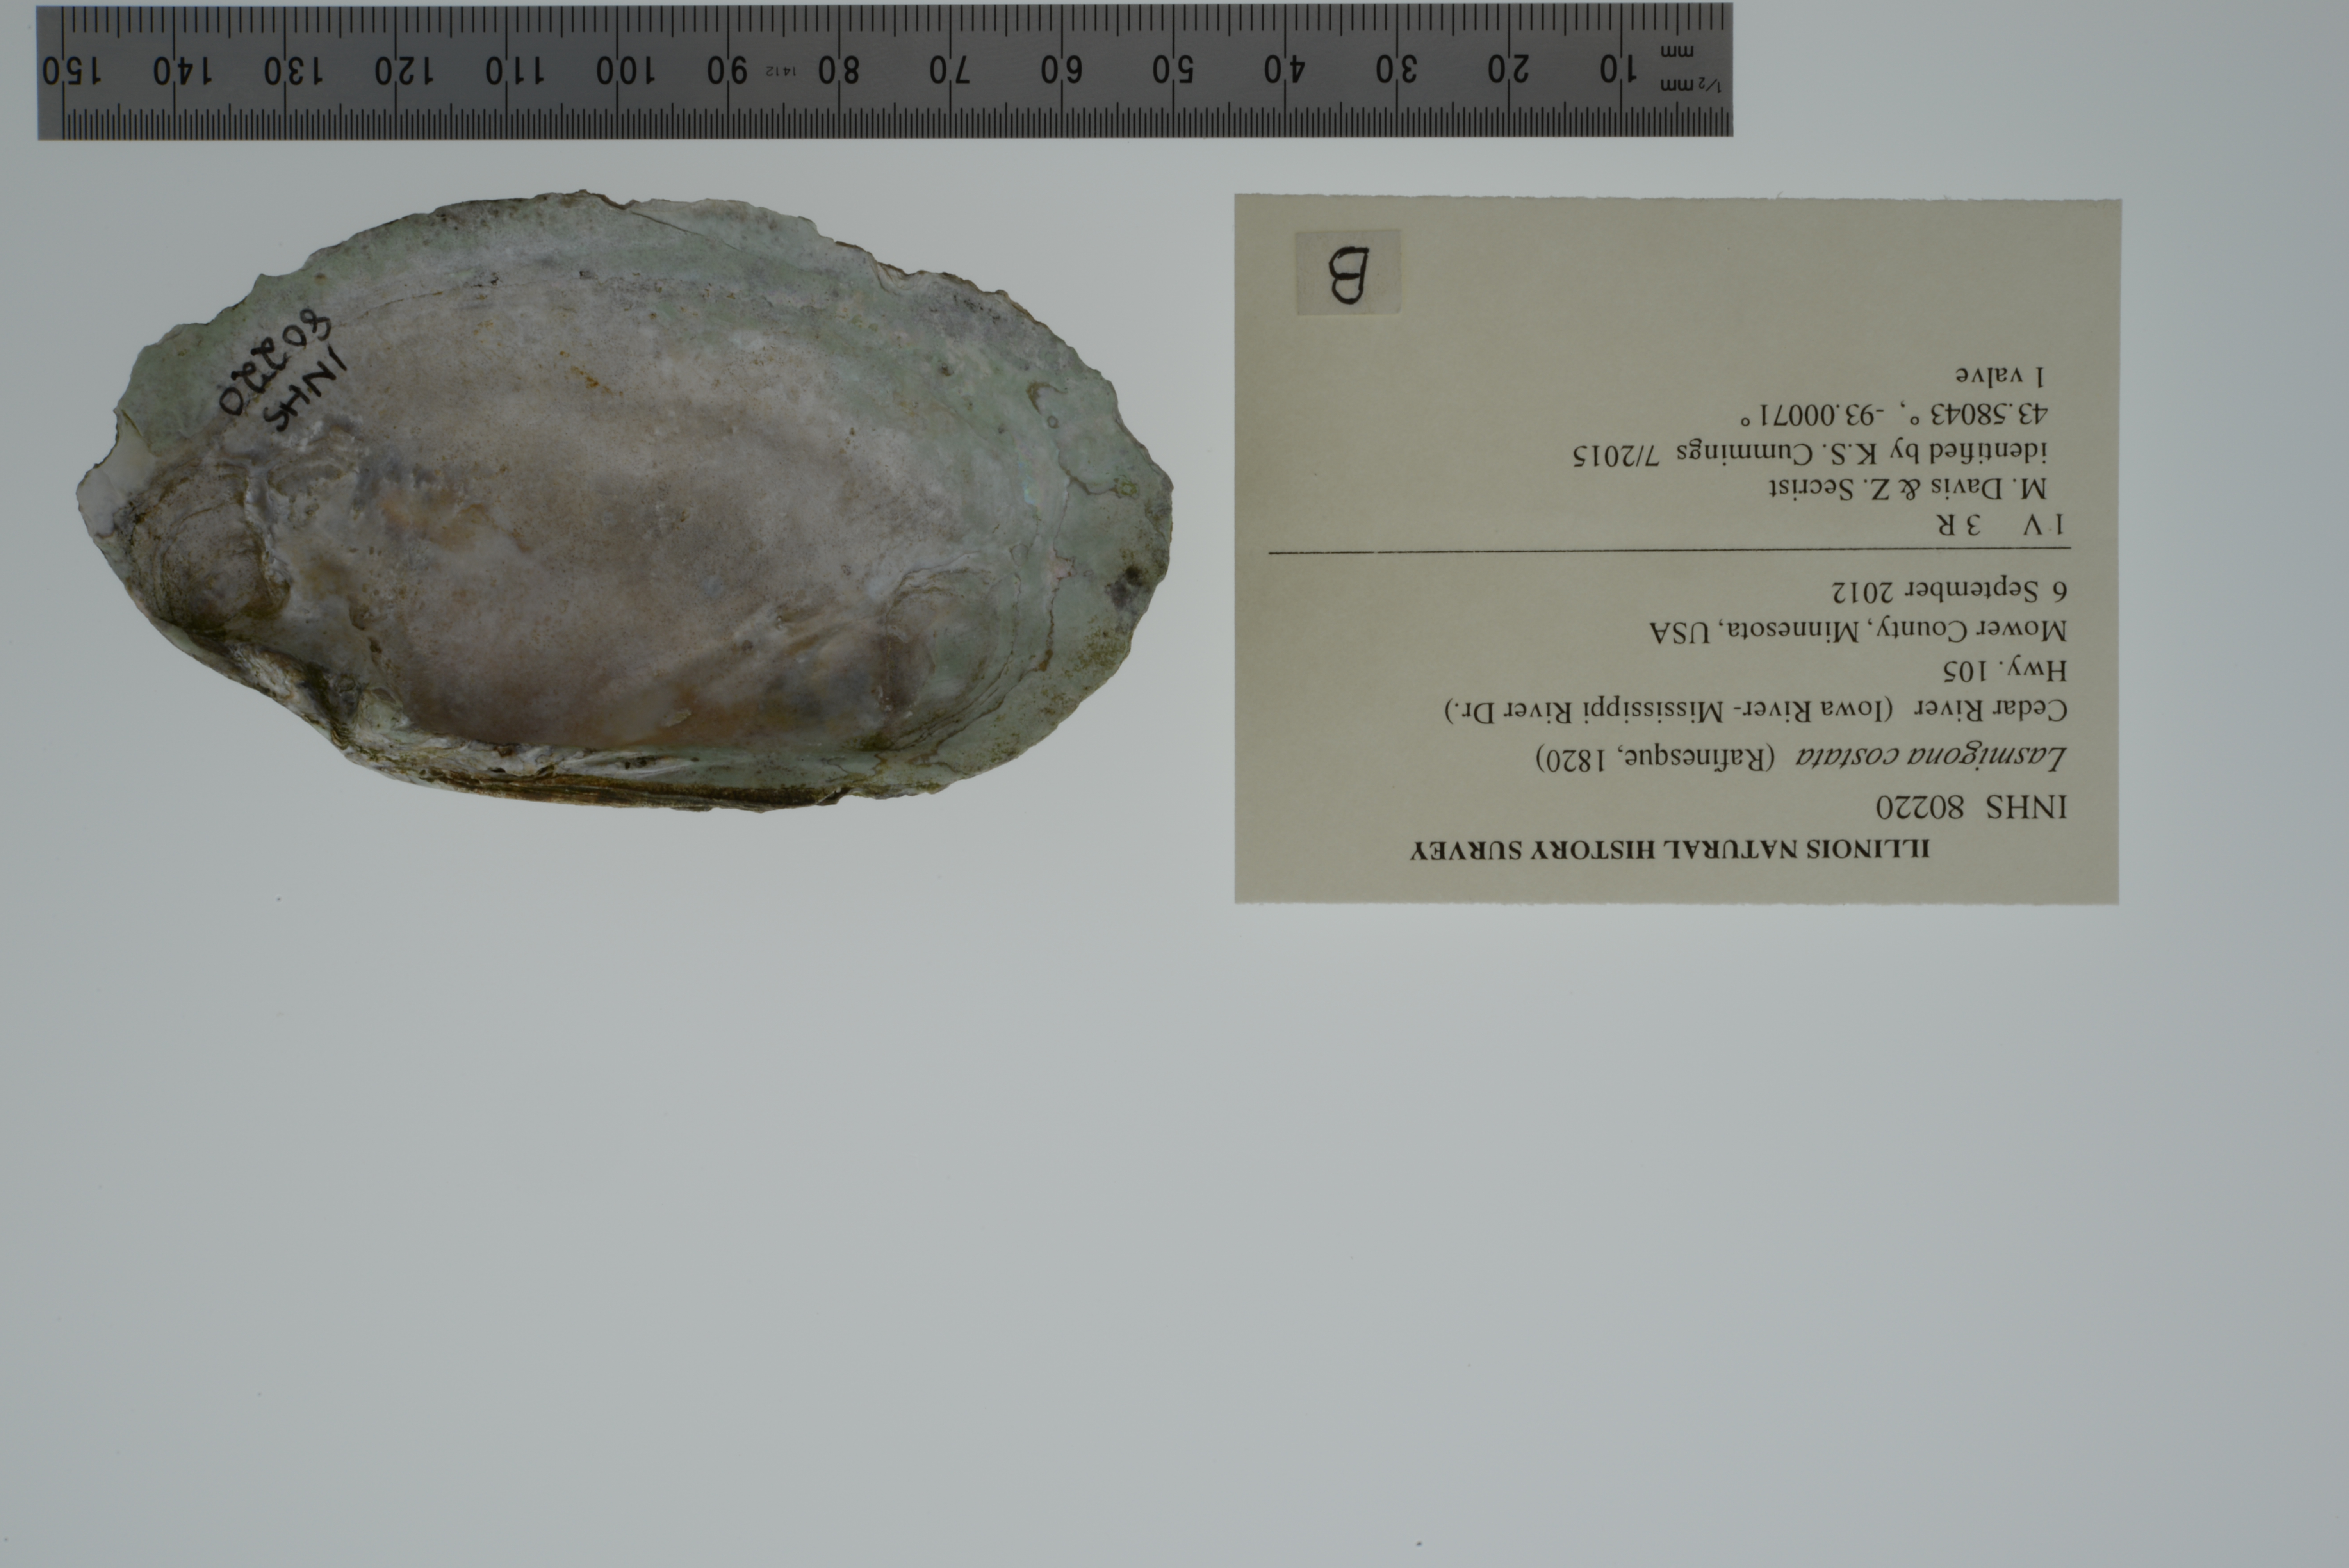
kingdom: Animalia
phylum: Mollusca
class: Bivalvia
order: Unionida
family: Unionidae
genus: Lasmigona
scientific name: Lasmigona costata
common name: Flutedshell
